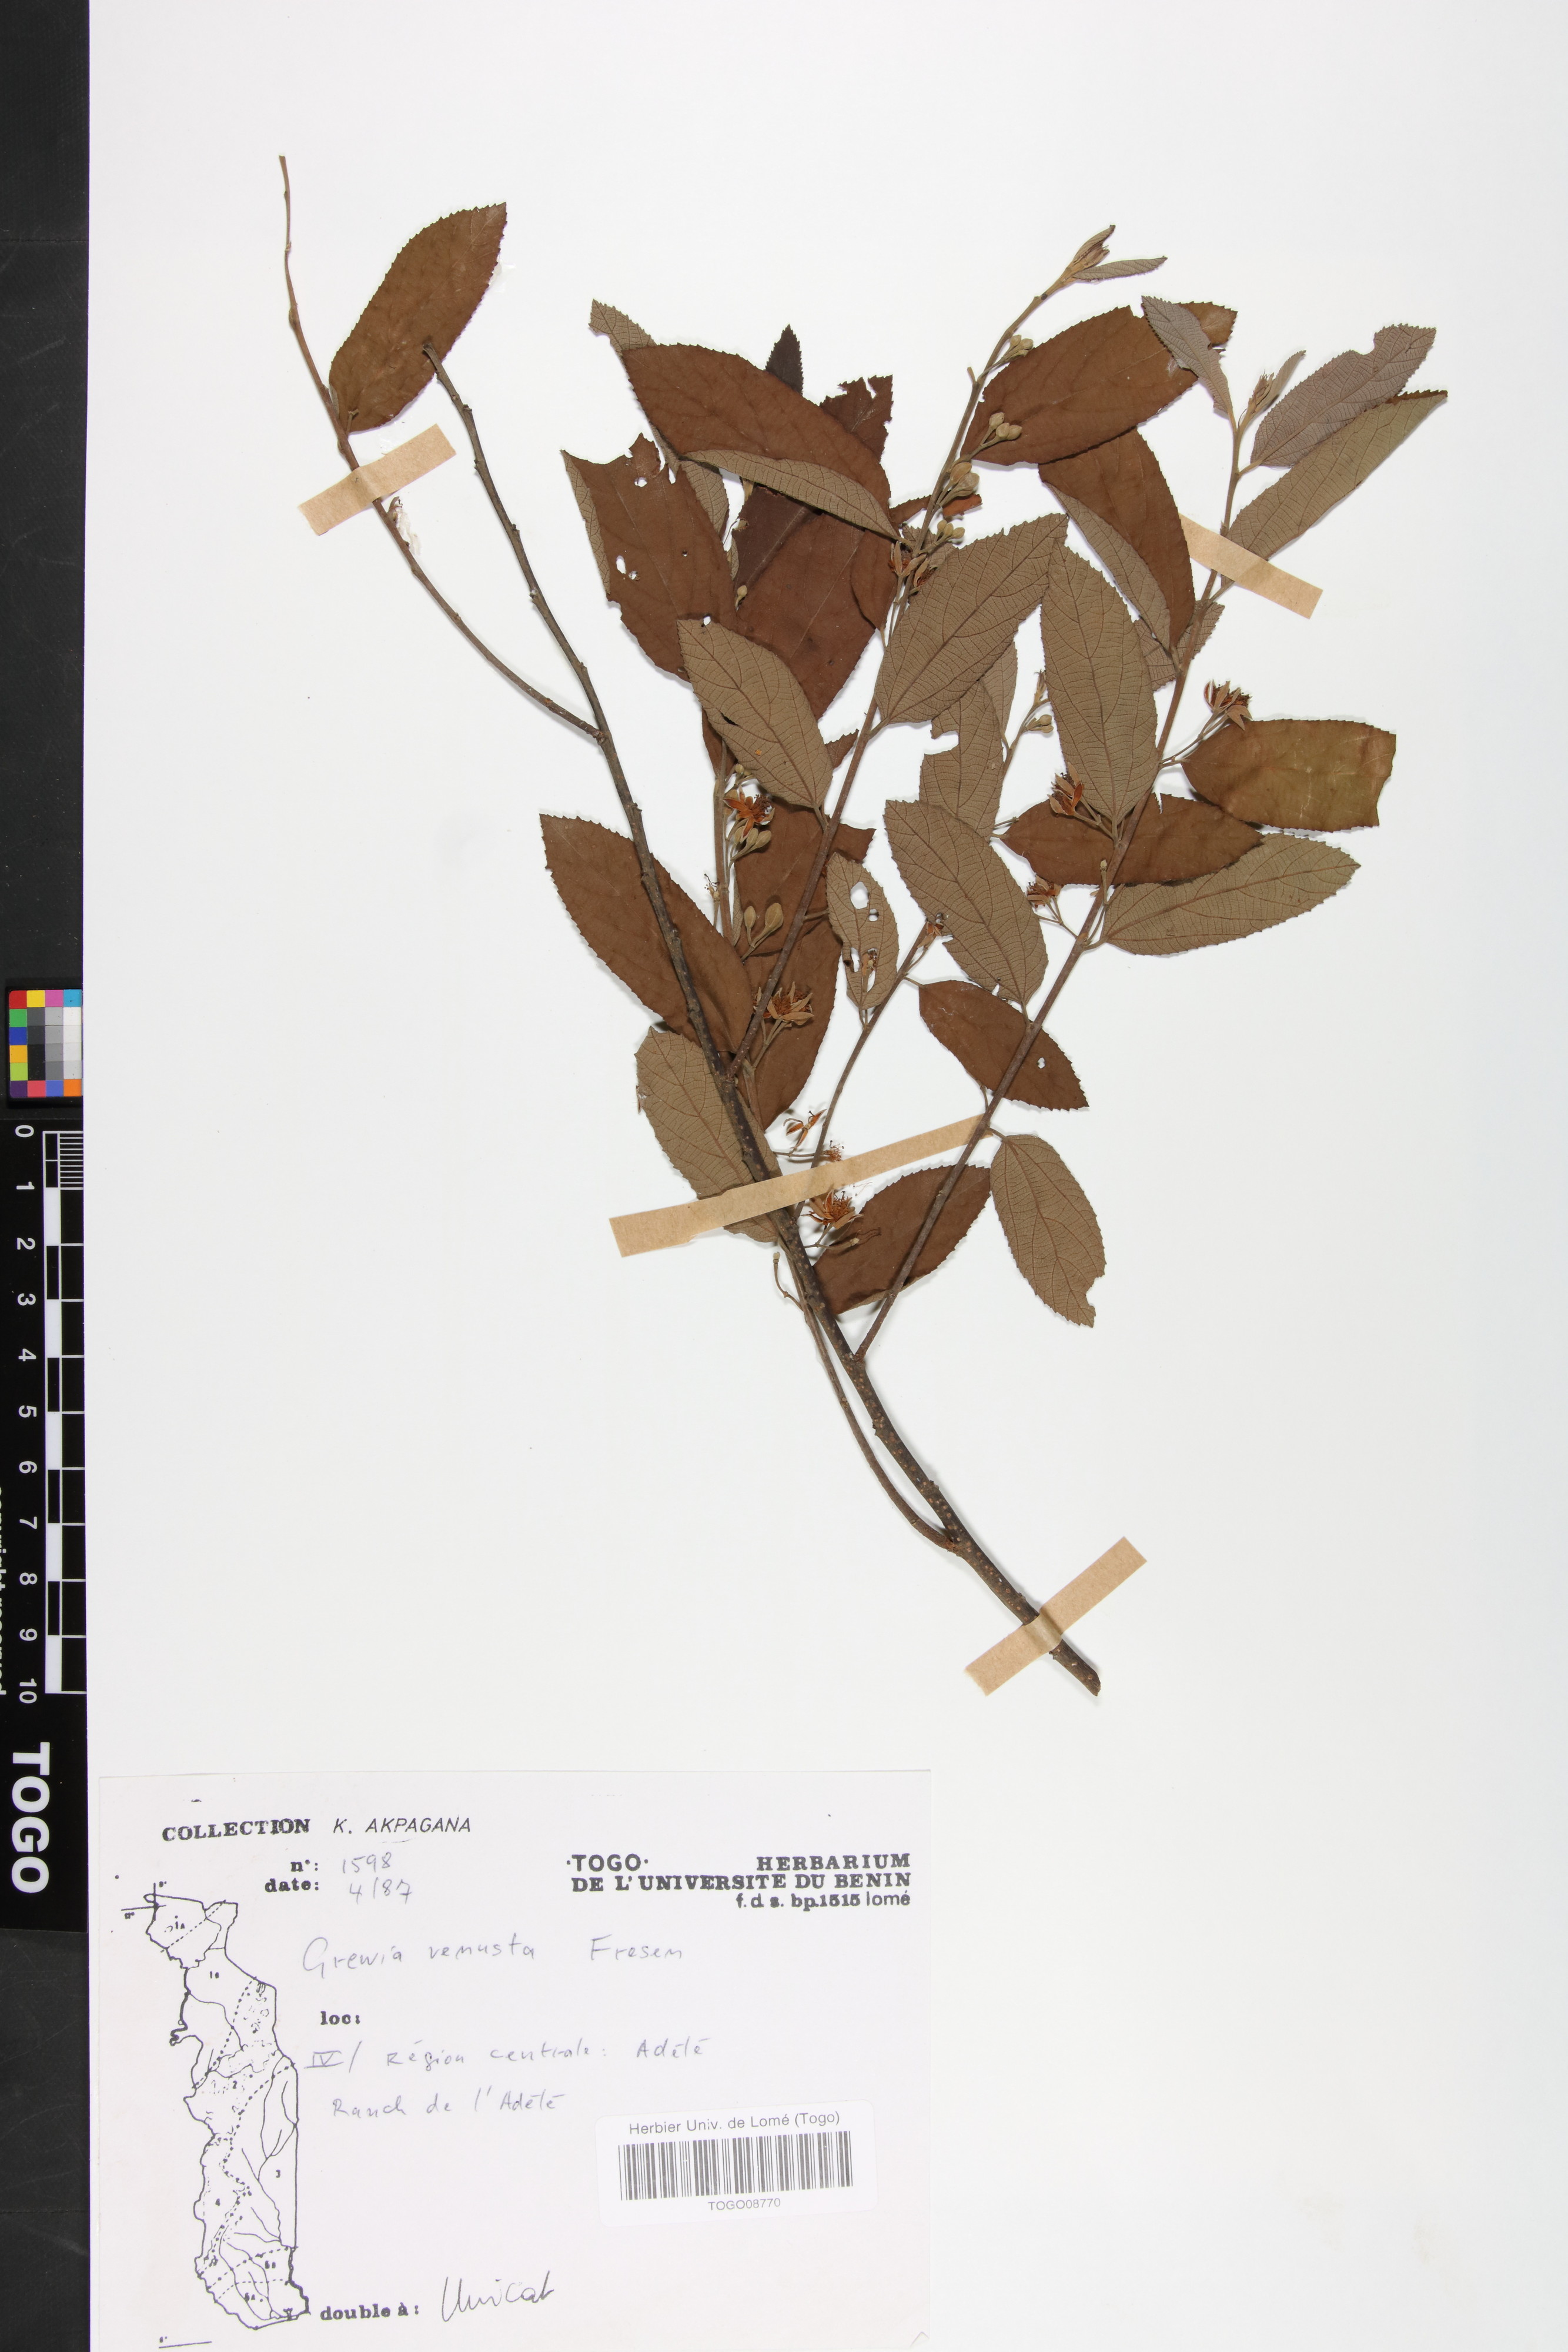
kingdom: Plantae
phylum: Tracheophyta
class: Magnoliopsida
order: Malvales
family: Malvaceae
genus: Grewia
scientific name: Grewia mollis
